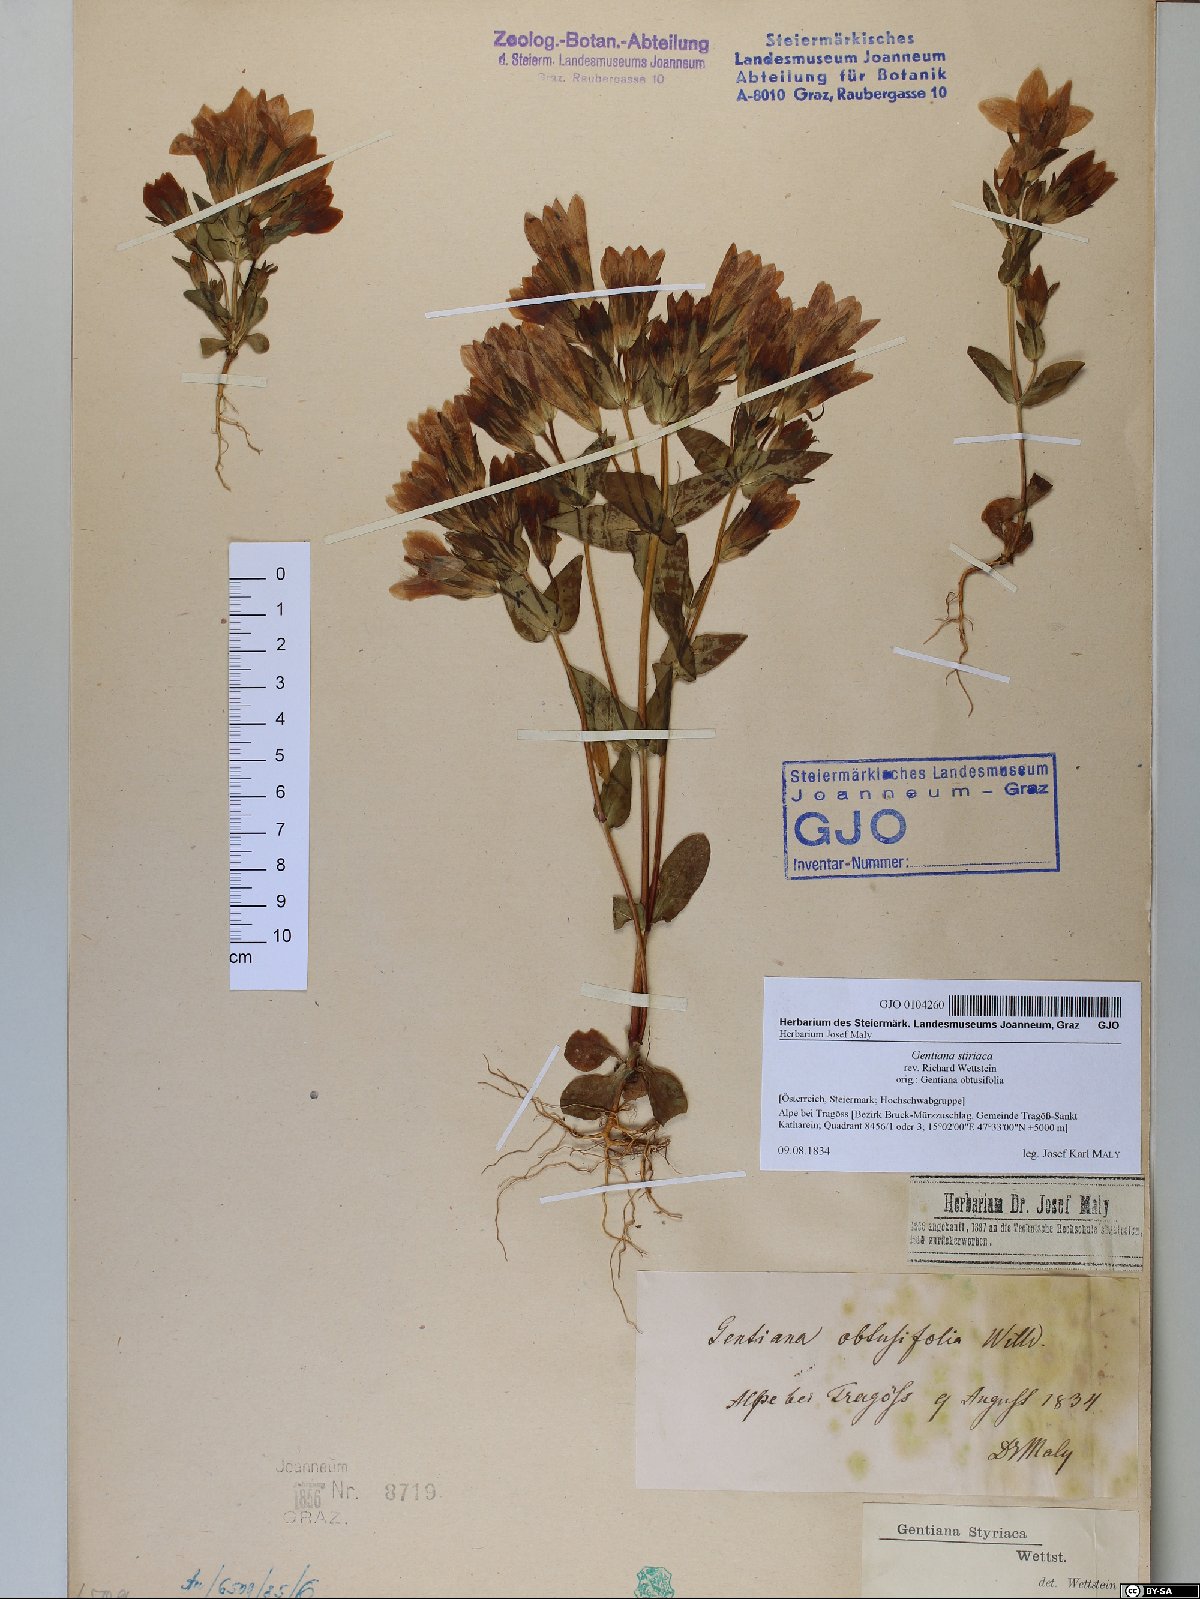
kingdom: Plantae
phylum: Tracheophyta
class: Magnoliopsida
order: Gentianales
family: Gentianaceae
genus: Gentianella
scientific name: Gentianella rhaetica
